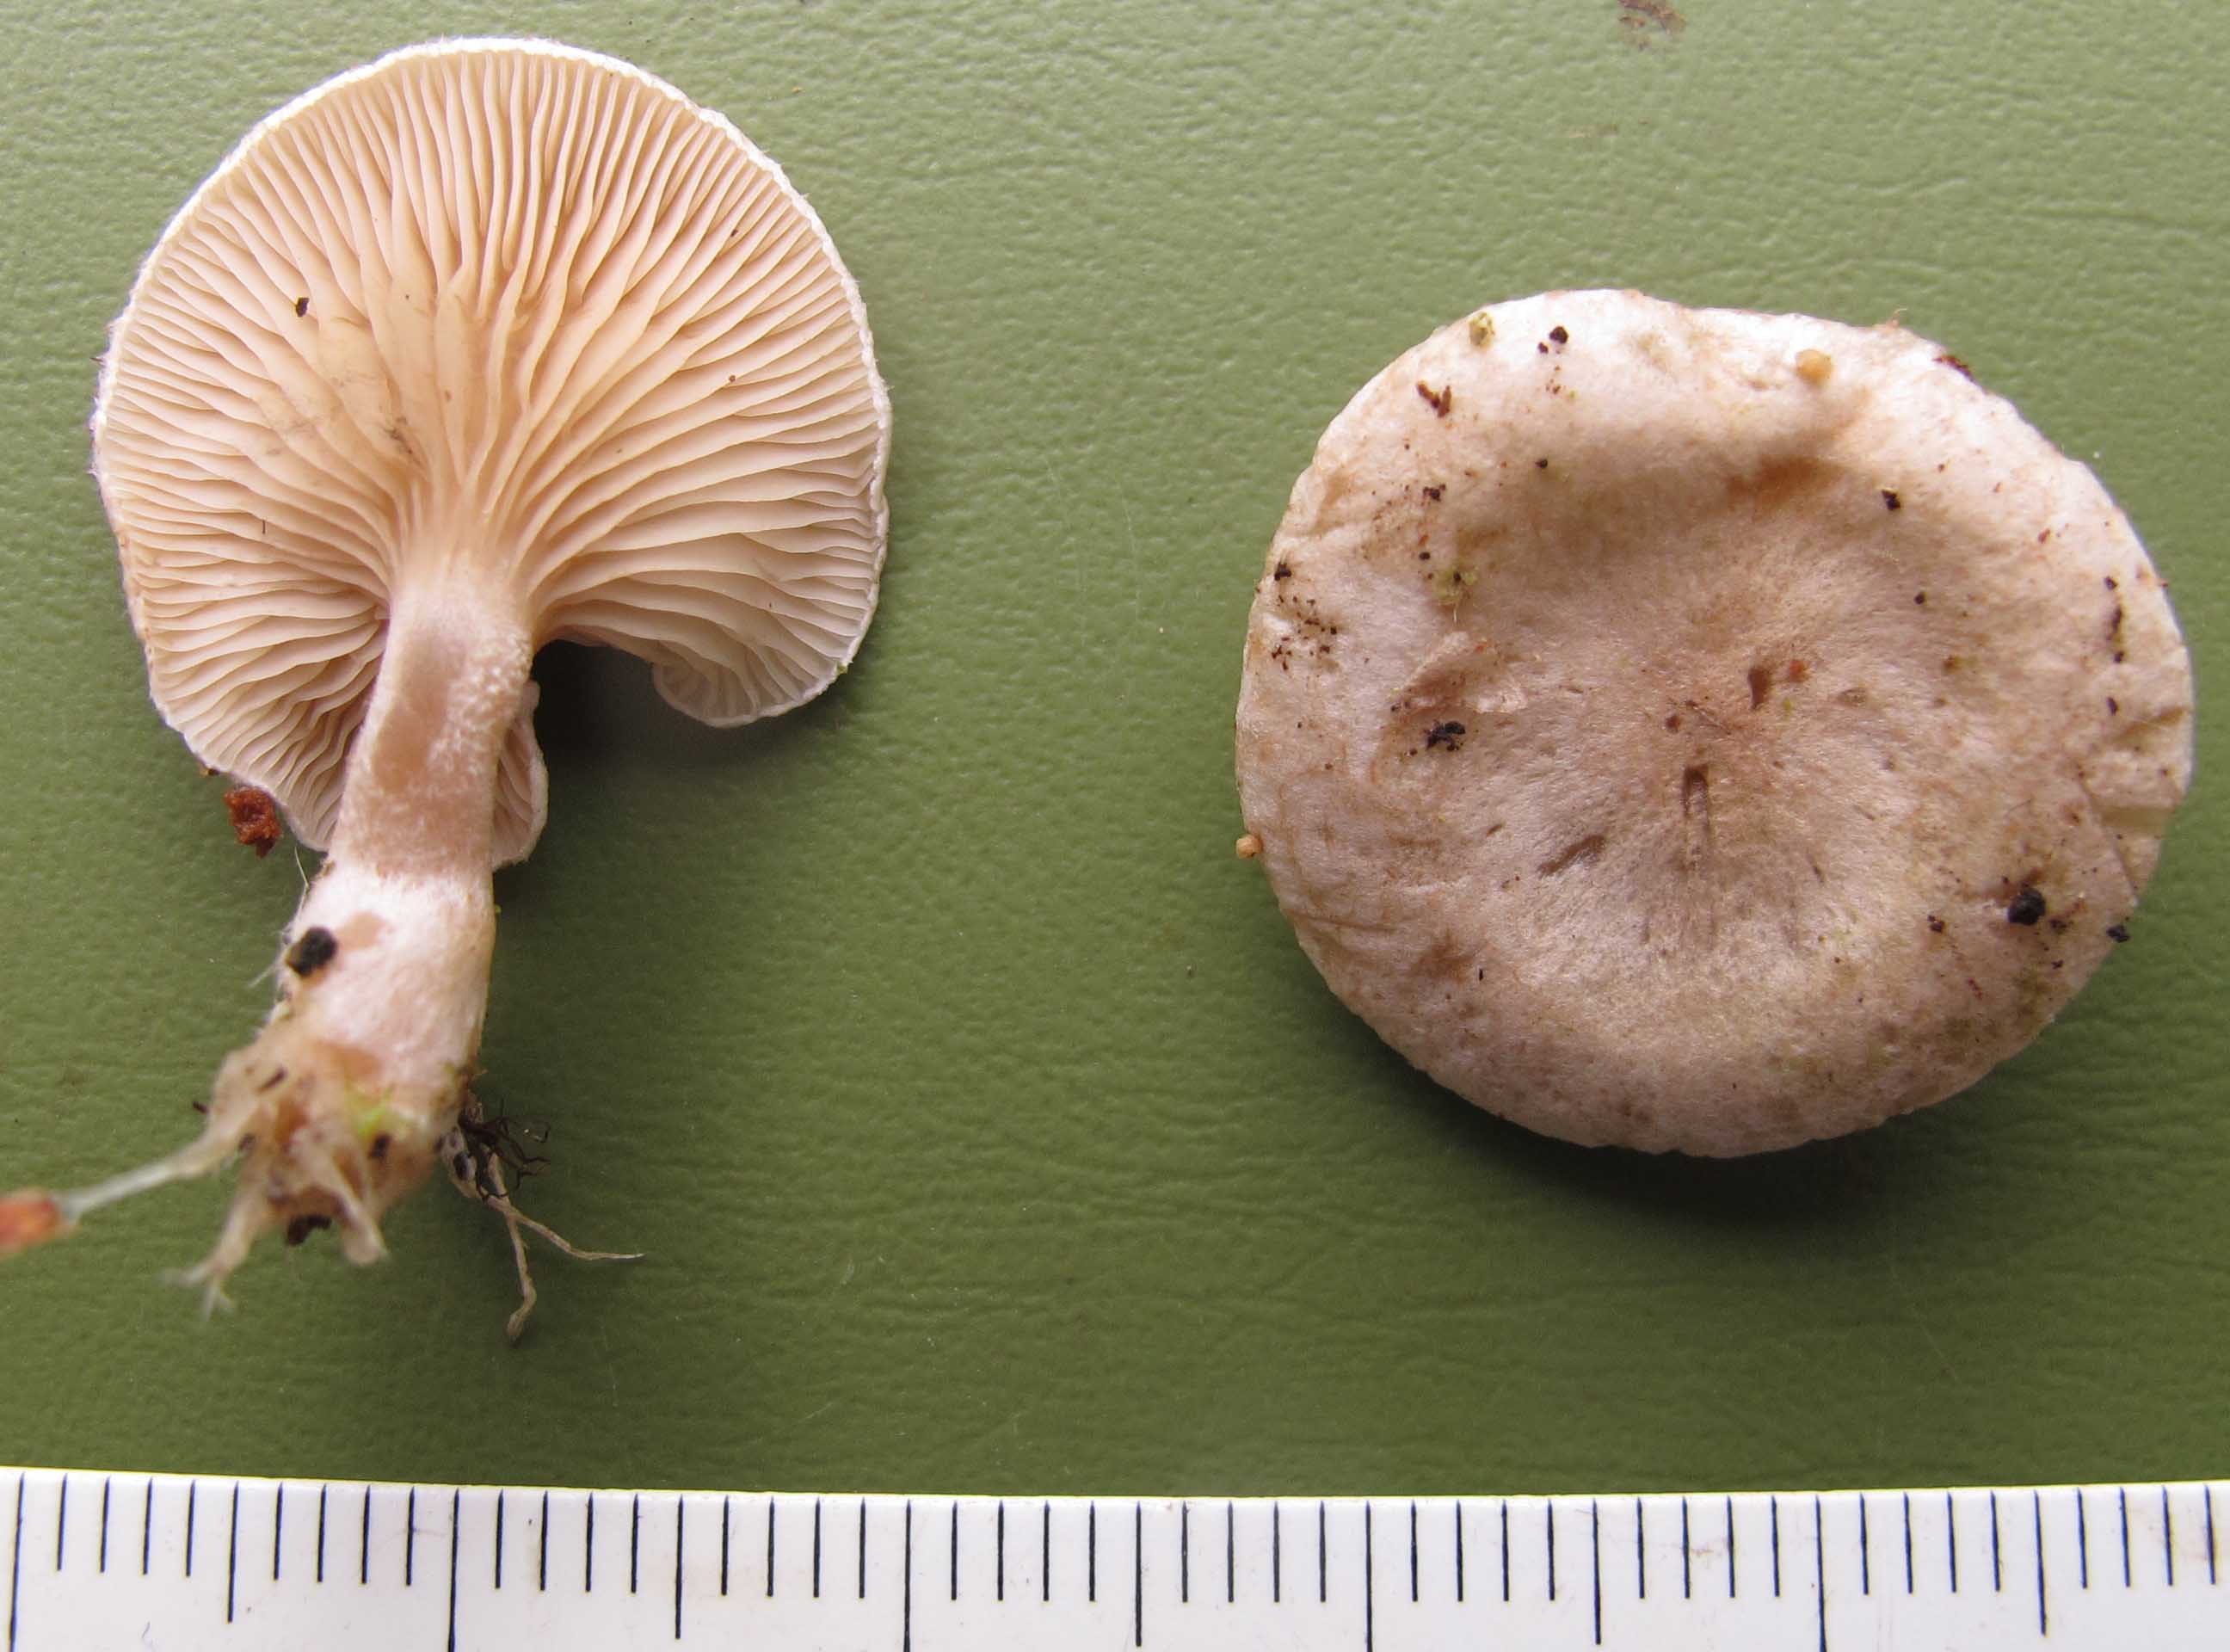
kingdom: Fungi
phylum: Basidiomycota
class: Agaricomycetes
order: Agaricales
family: Tricholomataceae
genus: Ripartites
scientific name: Ripartites tricholoma
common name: almindelig skæghat
